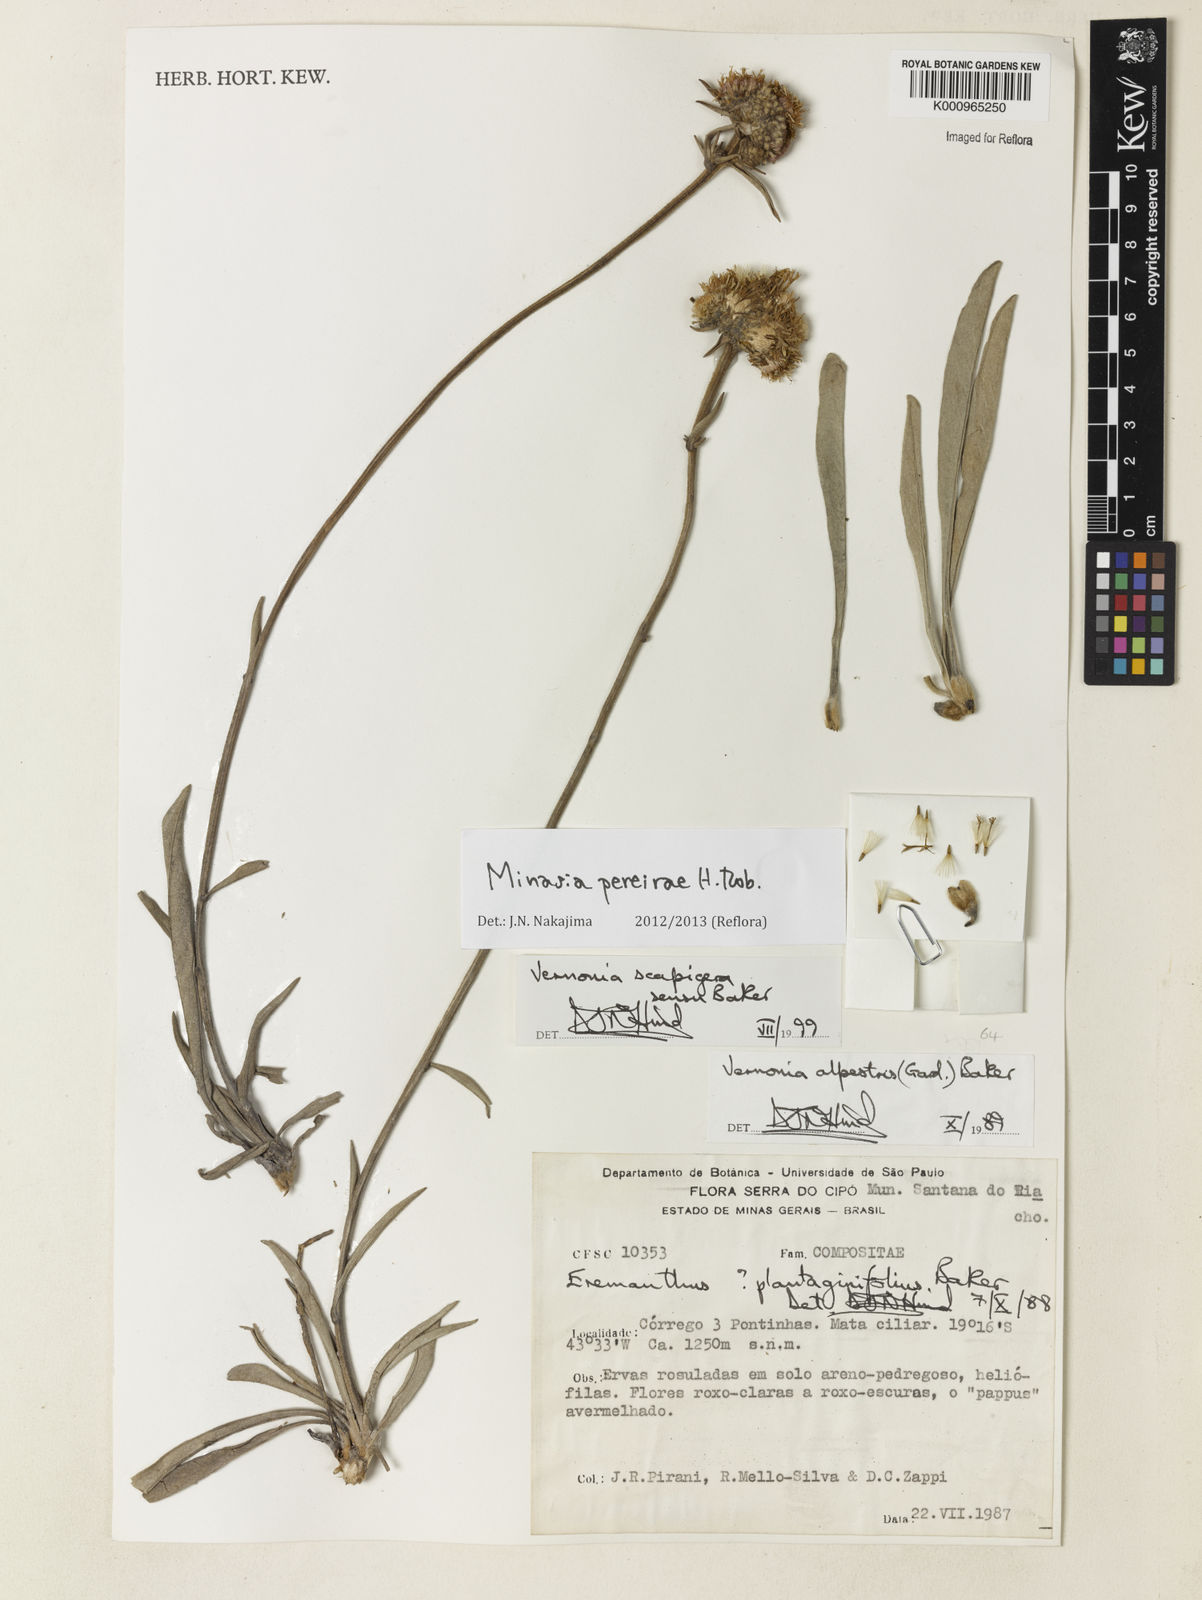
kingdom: Plantae
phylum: Tracheophyta
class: Magnoliopsida
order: Asterales
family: Asteraceae
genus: Minasia
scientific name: Minasia pereirae
